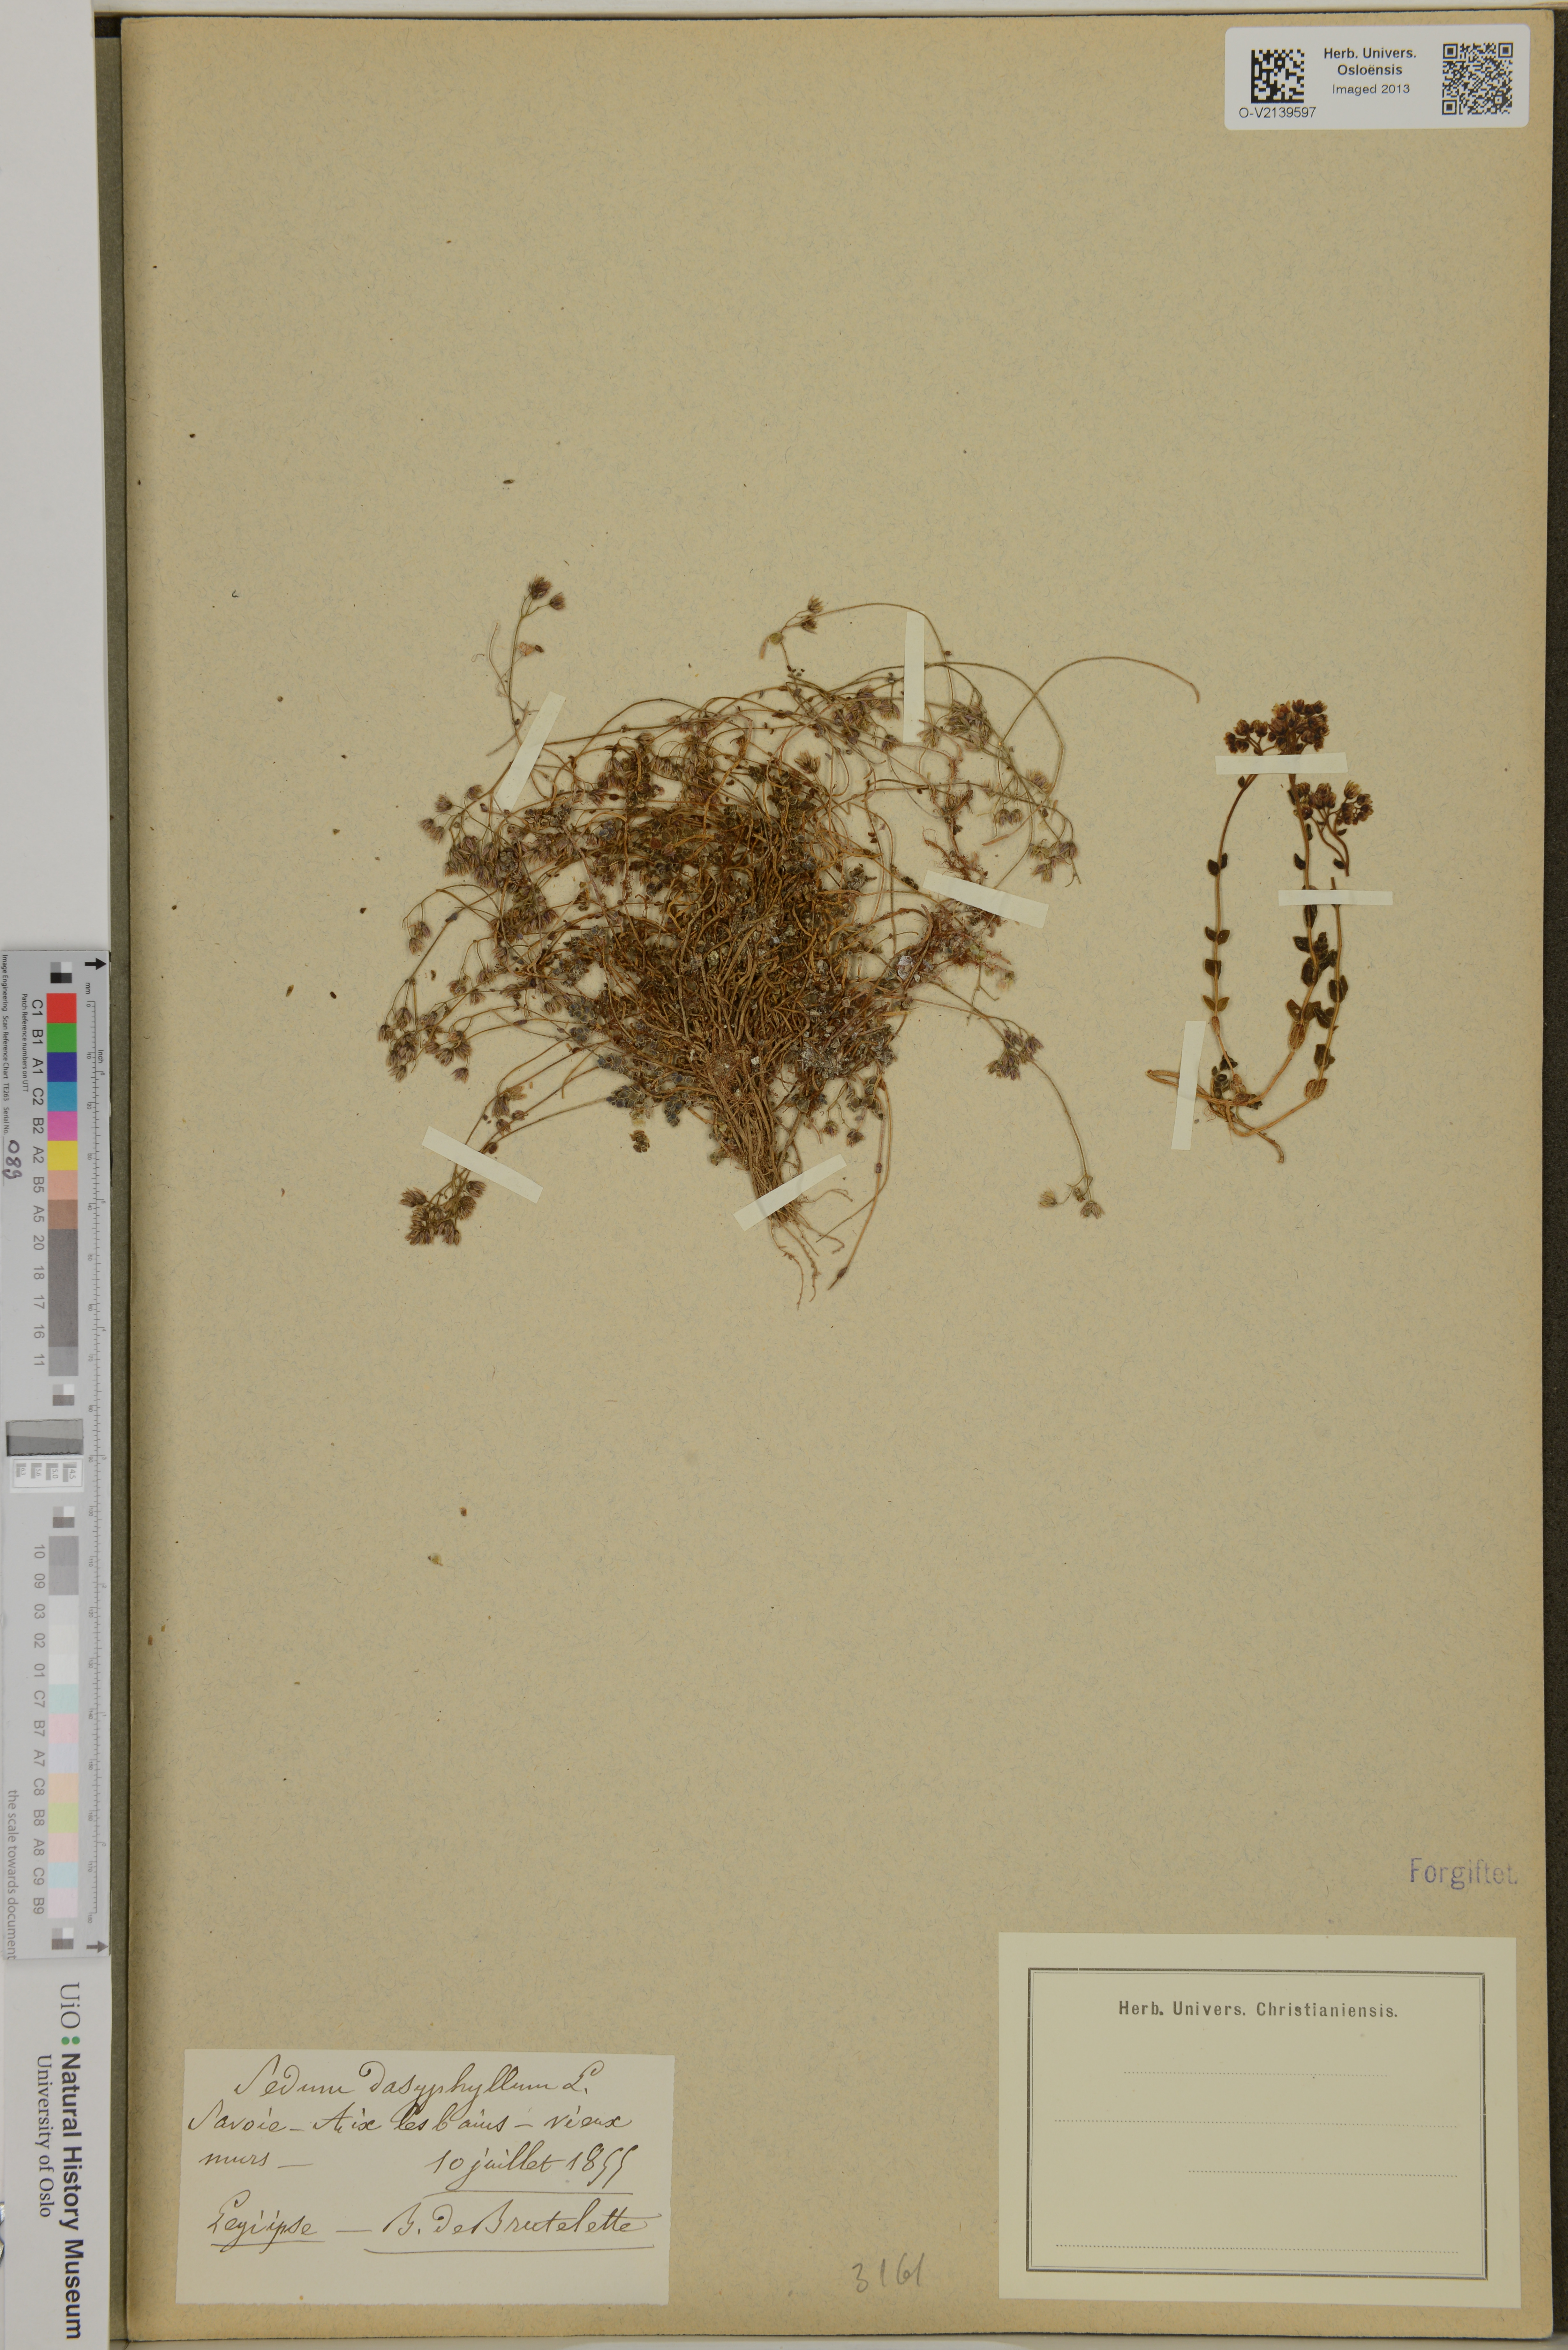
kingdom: Plantae
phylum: Tracheophyta
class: Magnoliopsida
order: Saxifragales
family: Crassulaceae
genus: Sedum
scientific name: Sedum dasyphyllum
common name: Thick-leaf stonecrop
